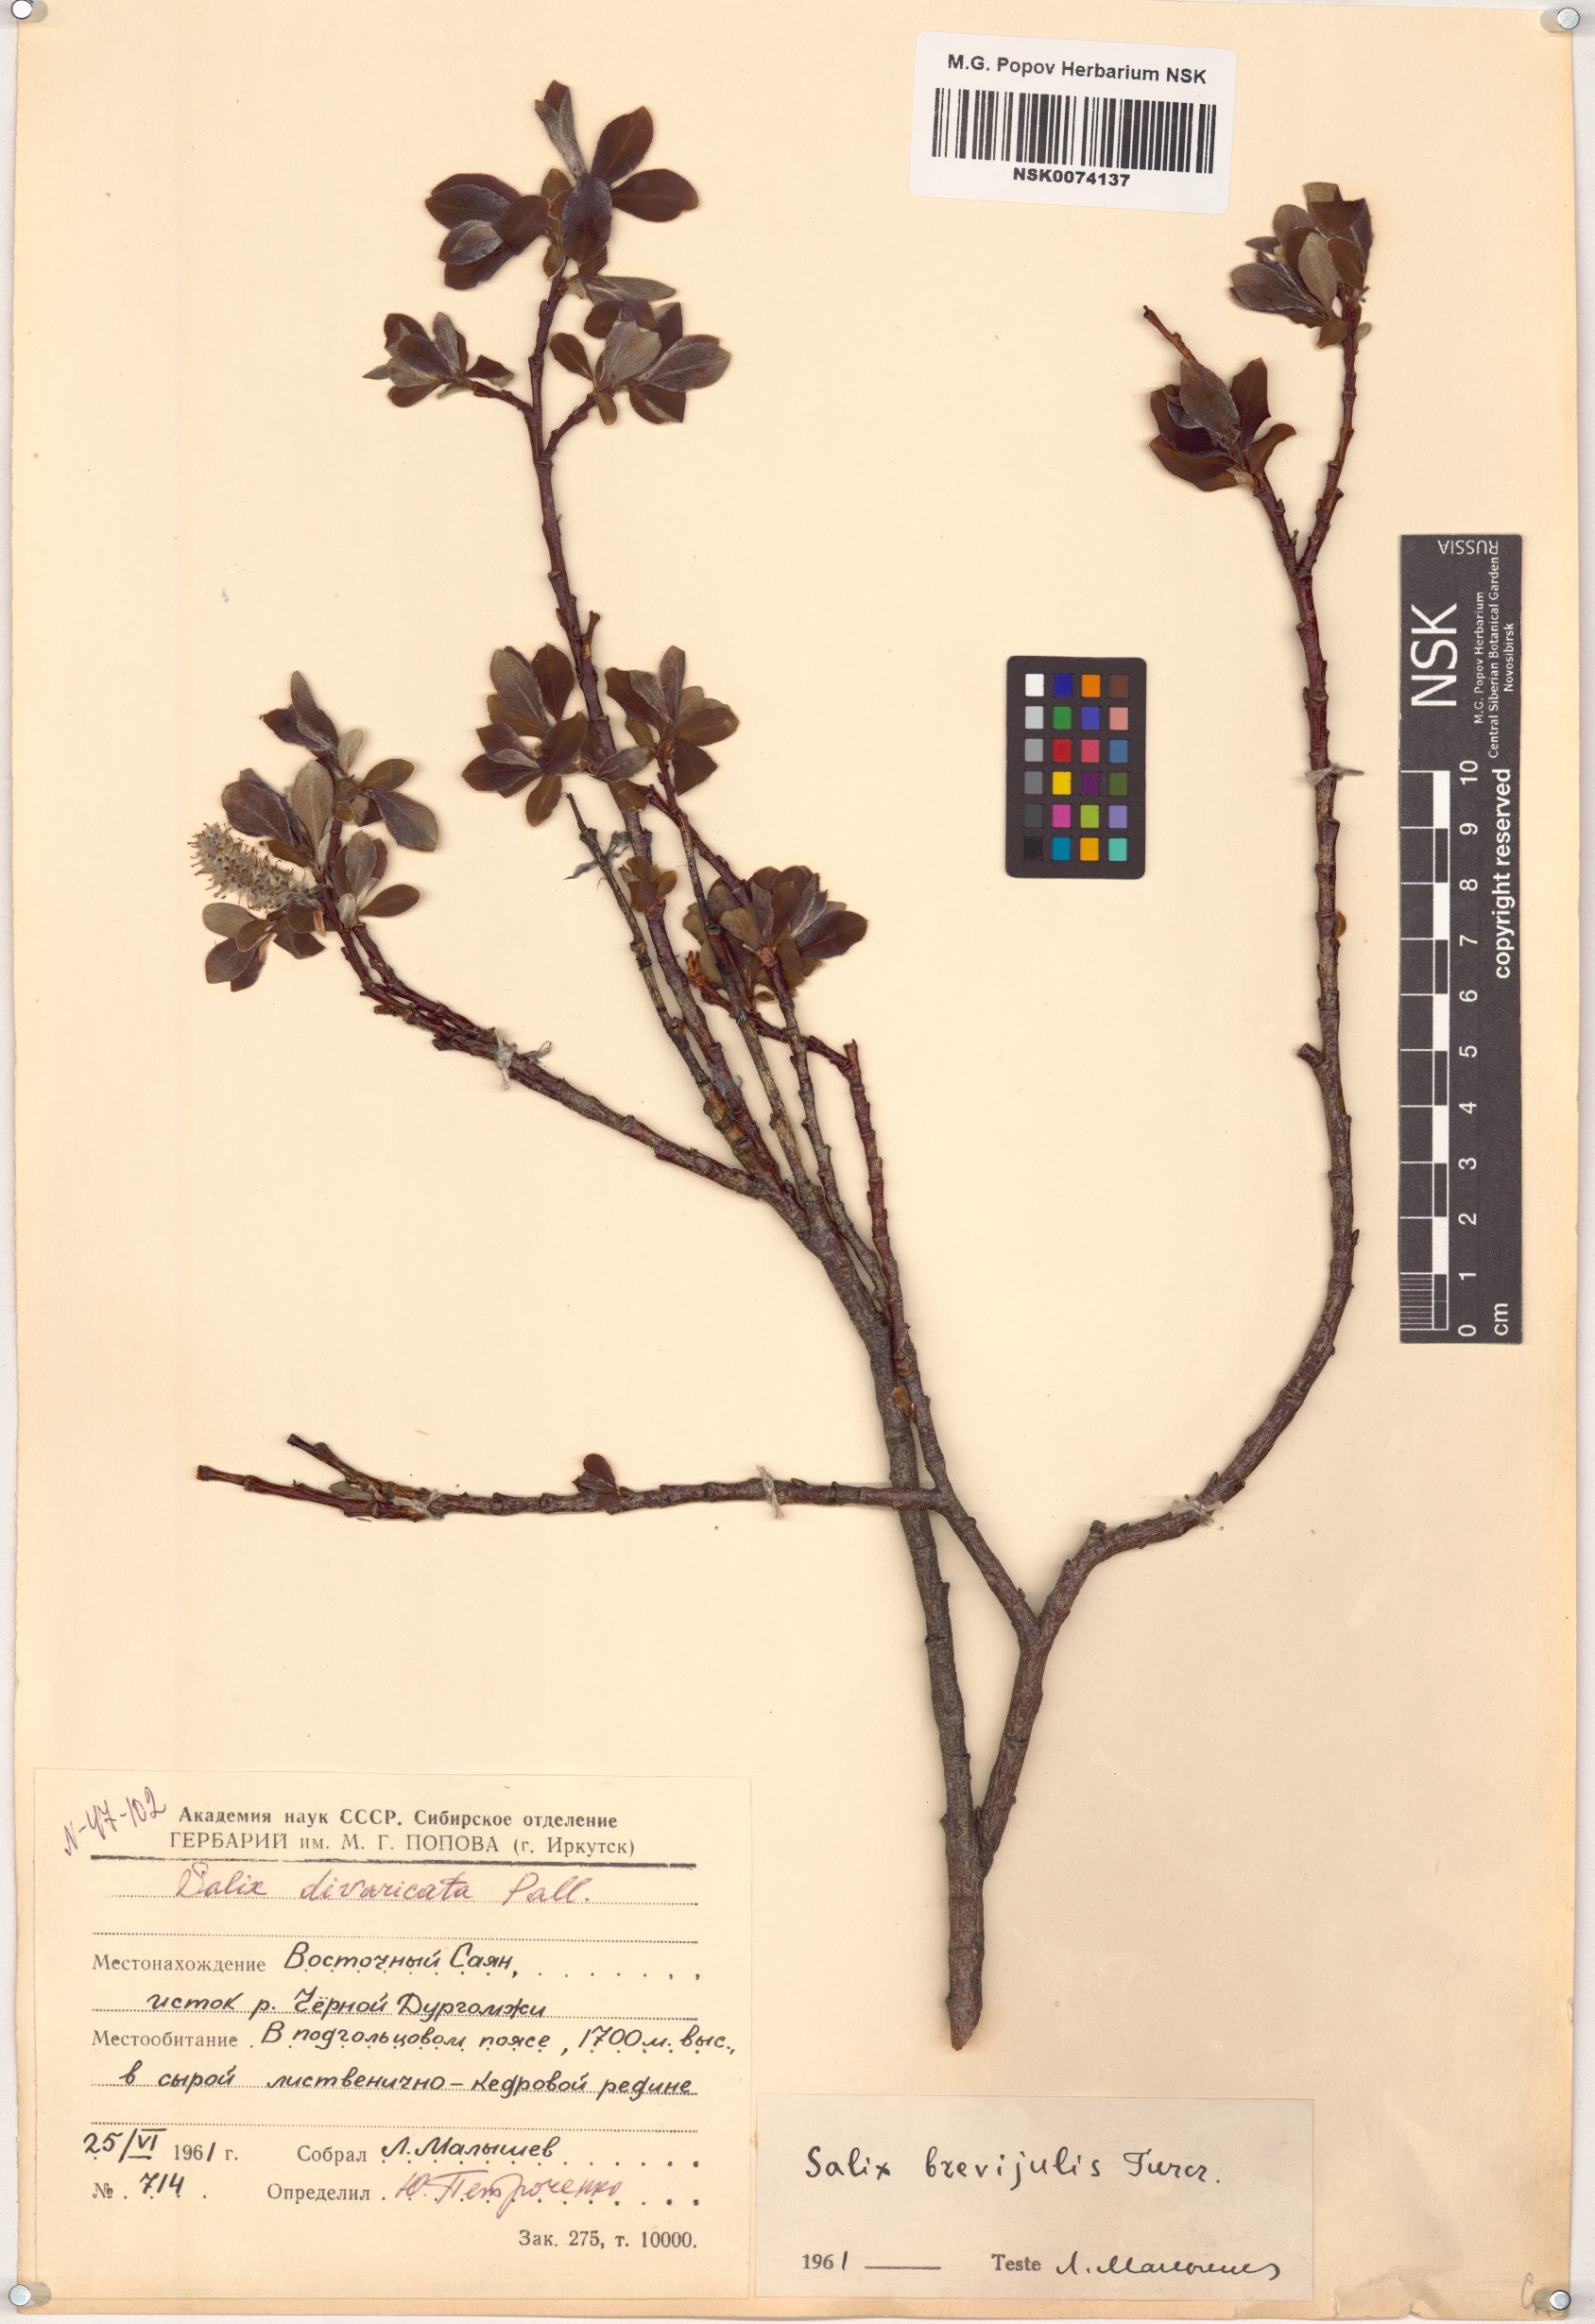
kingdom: Plantae
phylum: Tracheophyta
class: Magnoliopsida
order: Malpighiales
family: Salicaceae
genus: Salix
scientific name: Salix divaricata
